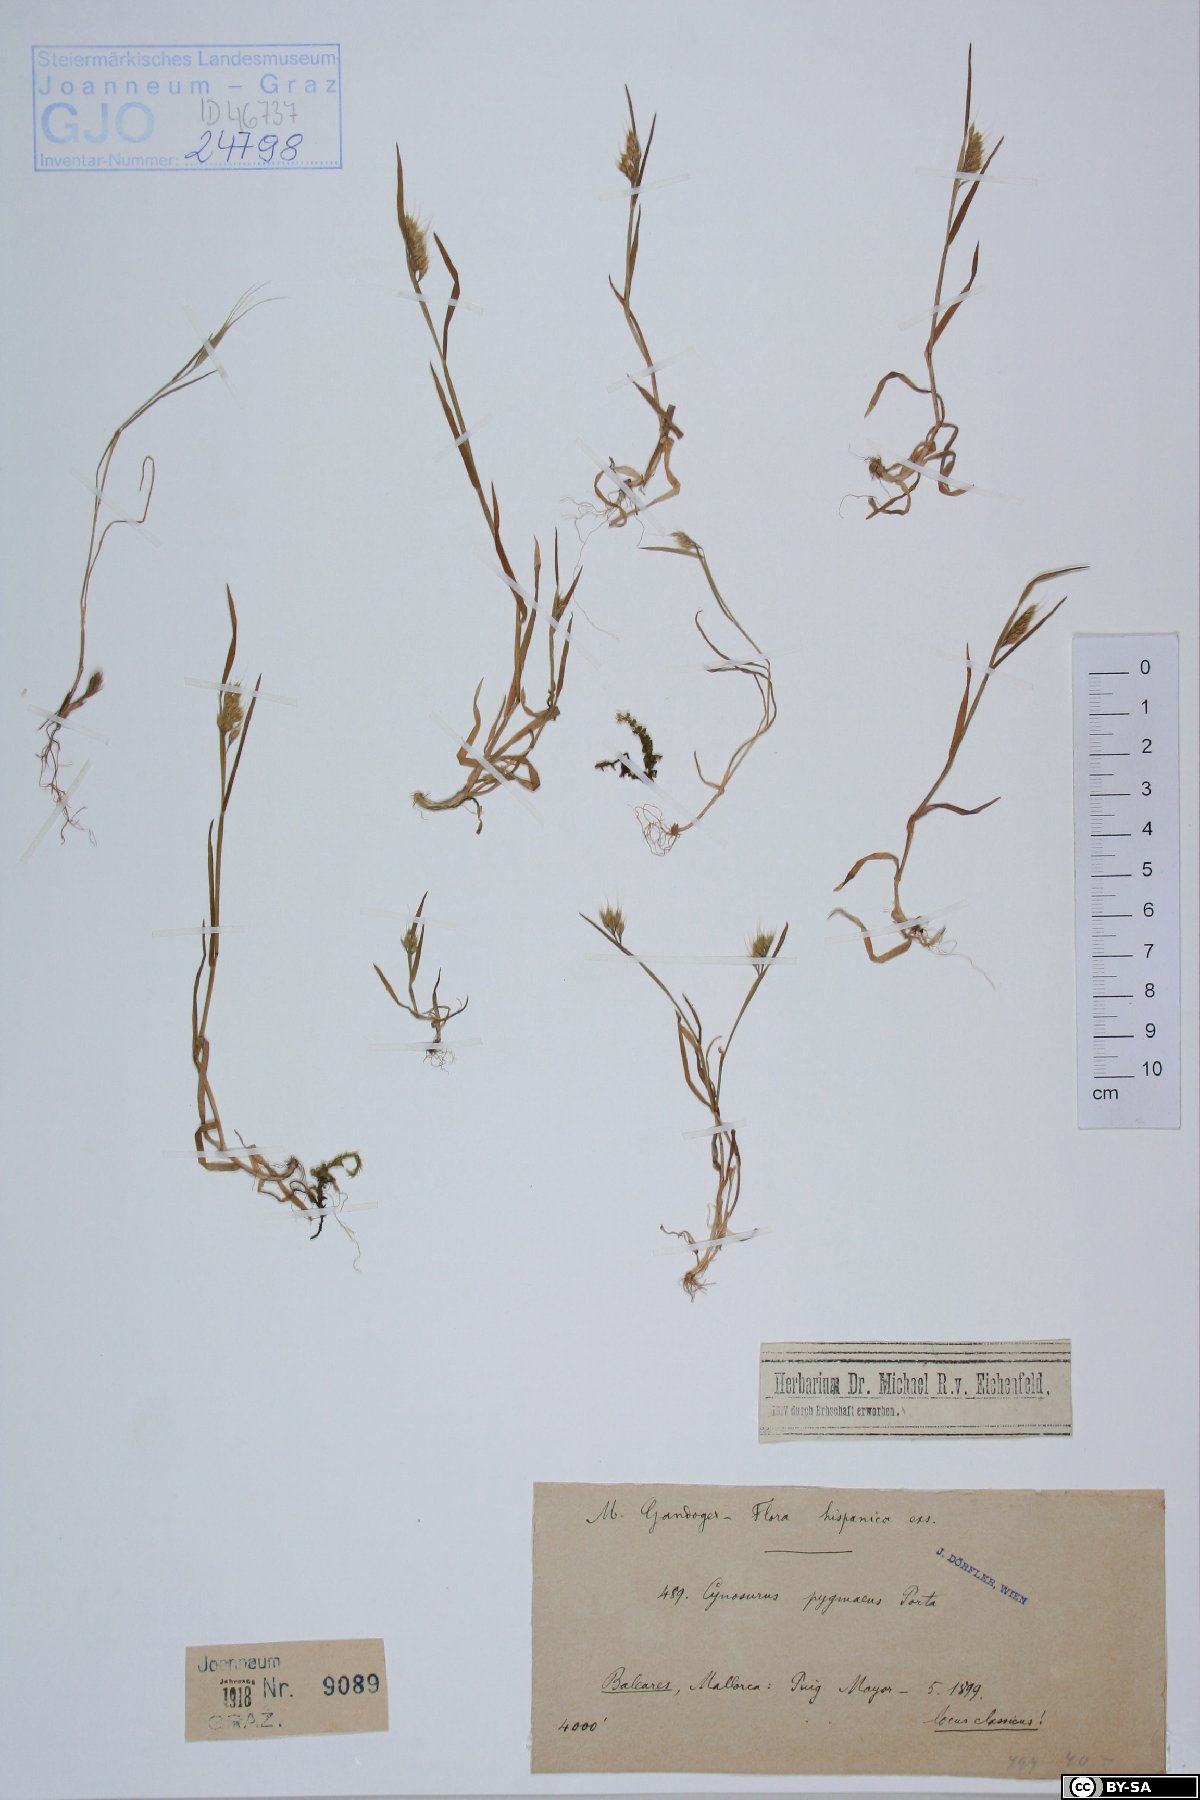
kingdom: Plantae
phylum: Tracheophyta
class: Liliopsida
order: Poales
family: Poaceae
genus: Cynosurus
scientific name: Cynosurus echinatus
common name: Rough dog's-tail
